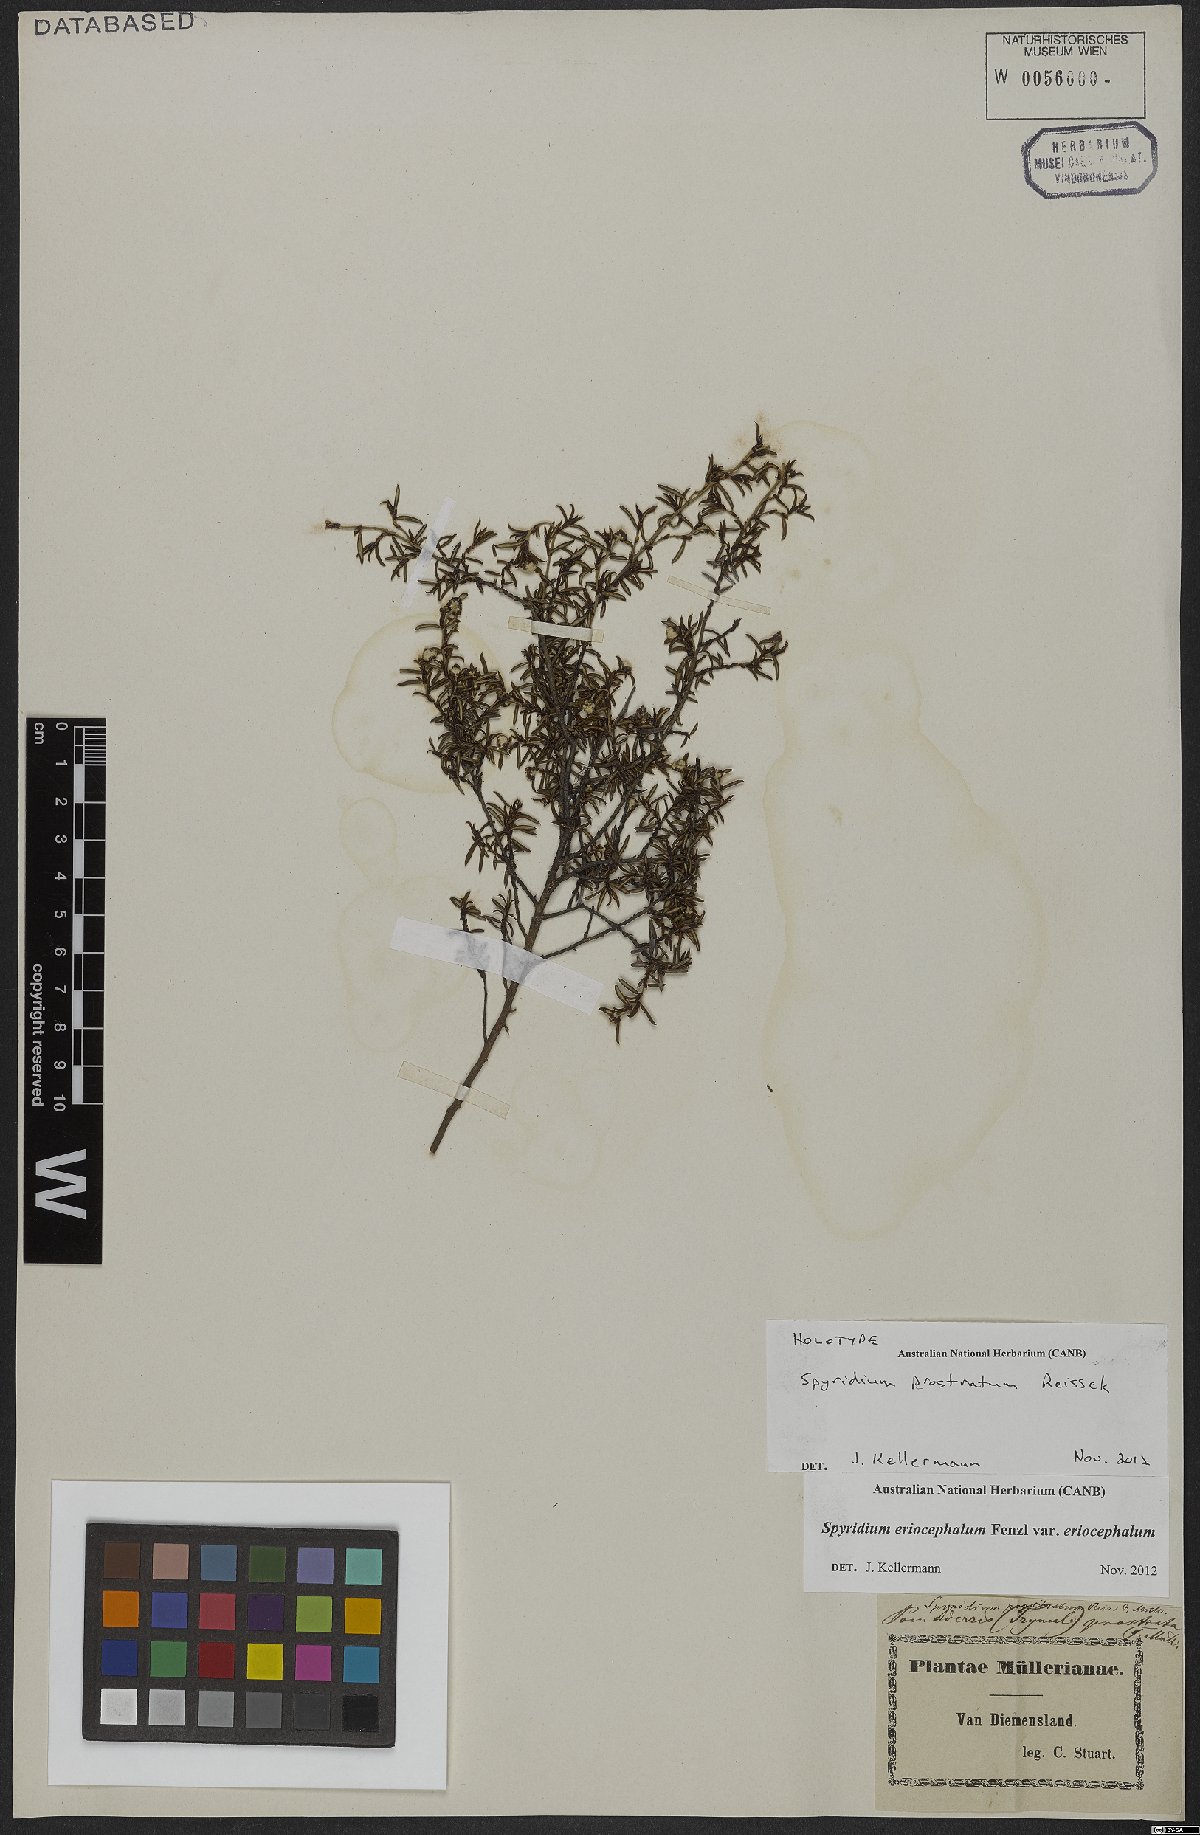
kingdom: Plantae
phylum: Tracheophyta
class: Magnoliopsida
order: Rosales
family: Rhamnaceae
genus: Spyridium
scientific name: Spyridium eriocephalum
